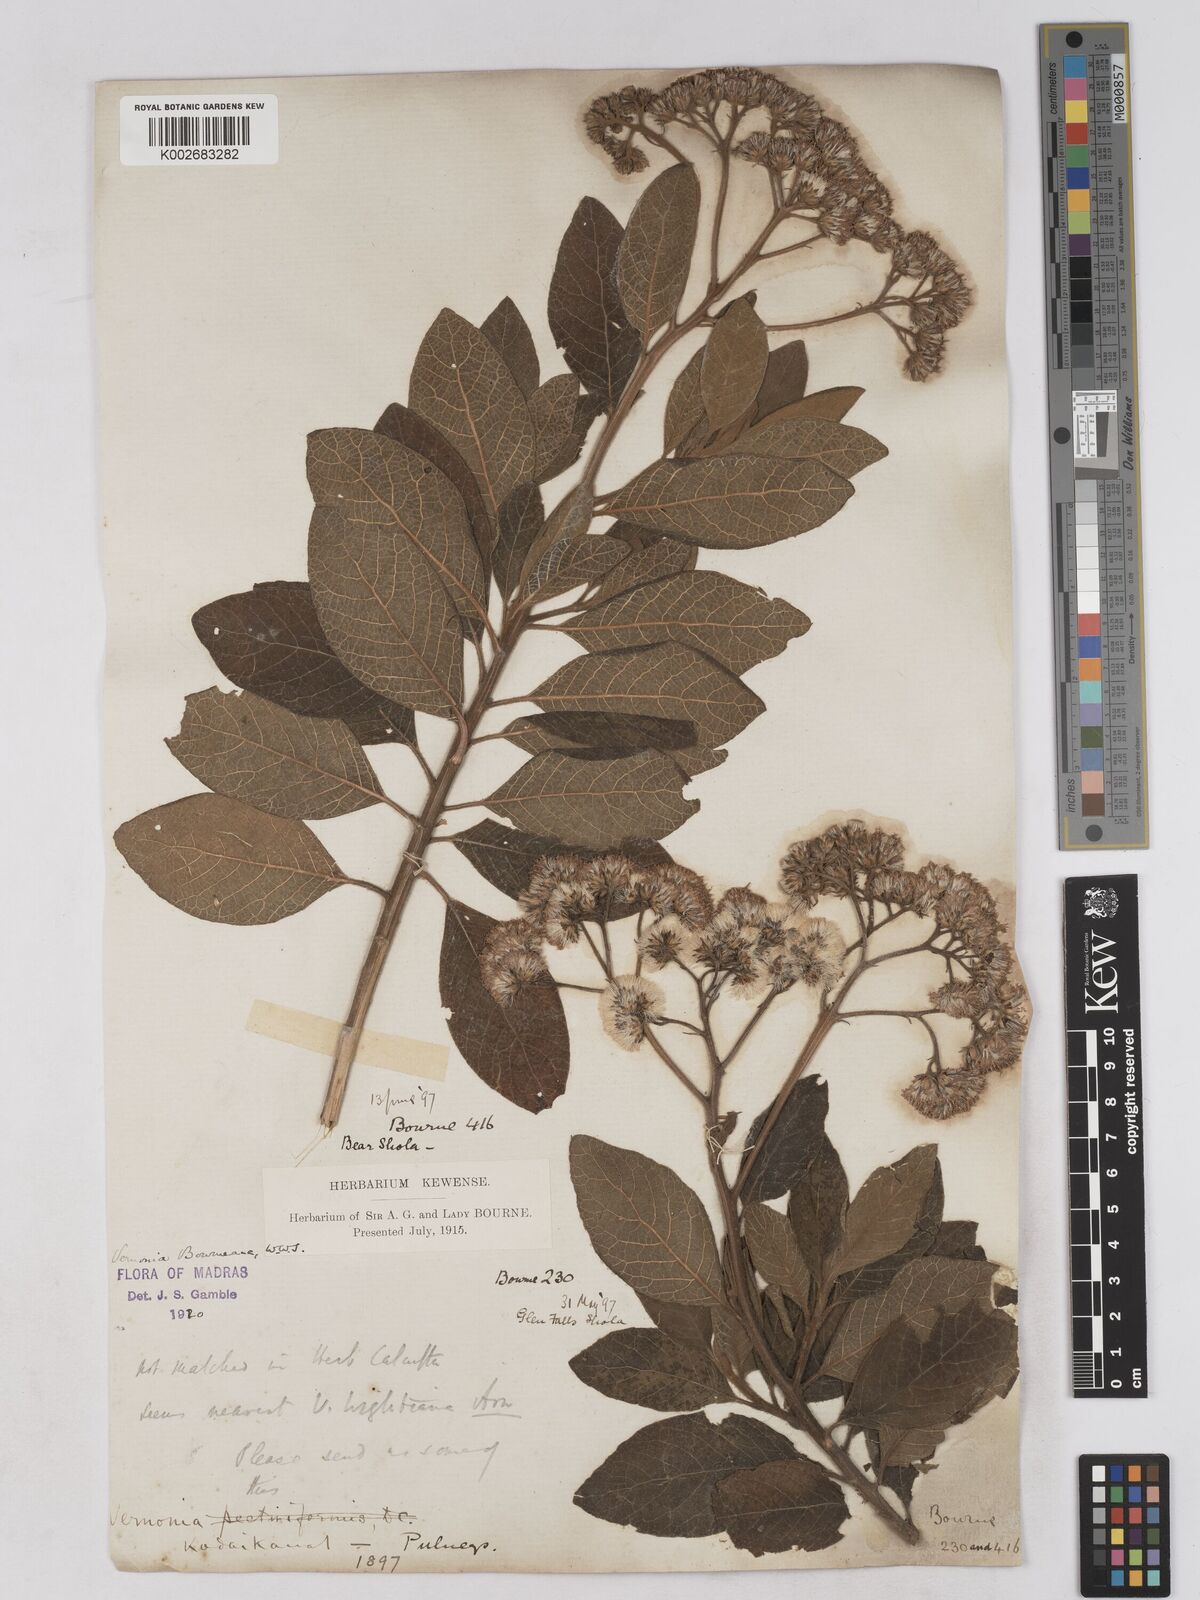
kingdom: Plantae
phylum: Tracheophyta
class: Magnoliopsida
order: Asterales
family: Asteraceae
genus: Uniyala
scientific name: Uniyala bourneana
